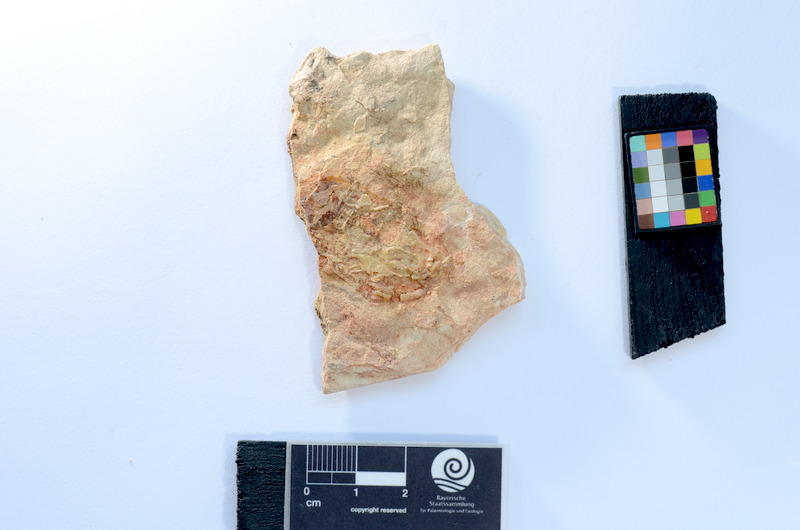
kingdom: Animalia
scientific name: Animalia
